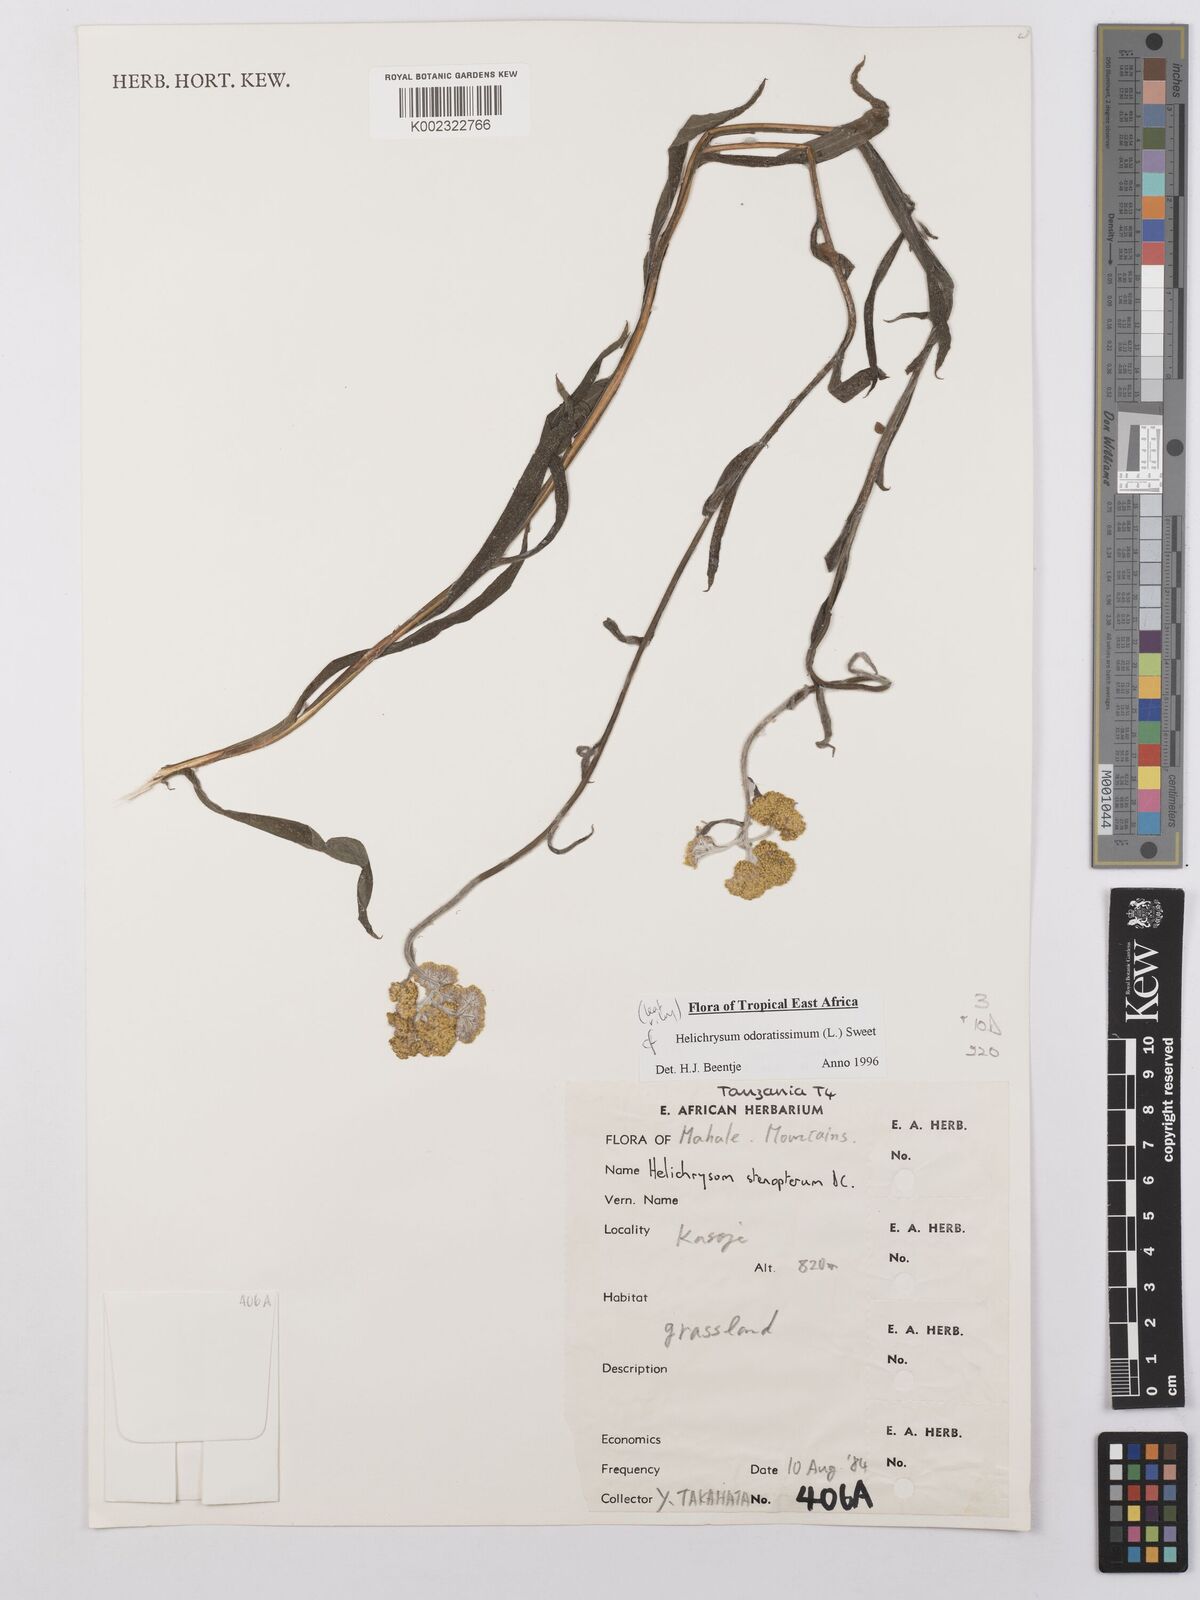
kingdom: Plantae
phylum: Tracheophyta
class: Magnoliopsida
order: Asterales
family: Asteraceae
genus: Helichrysum
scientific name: Helichrysum odoratissimum
